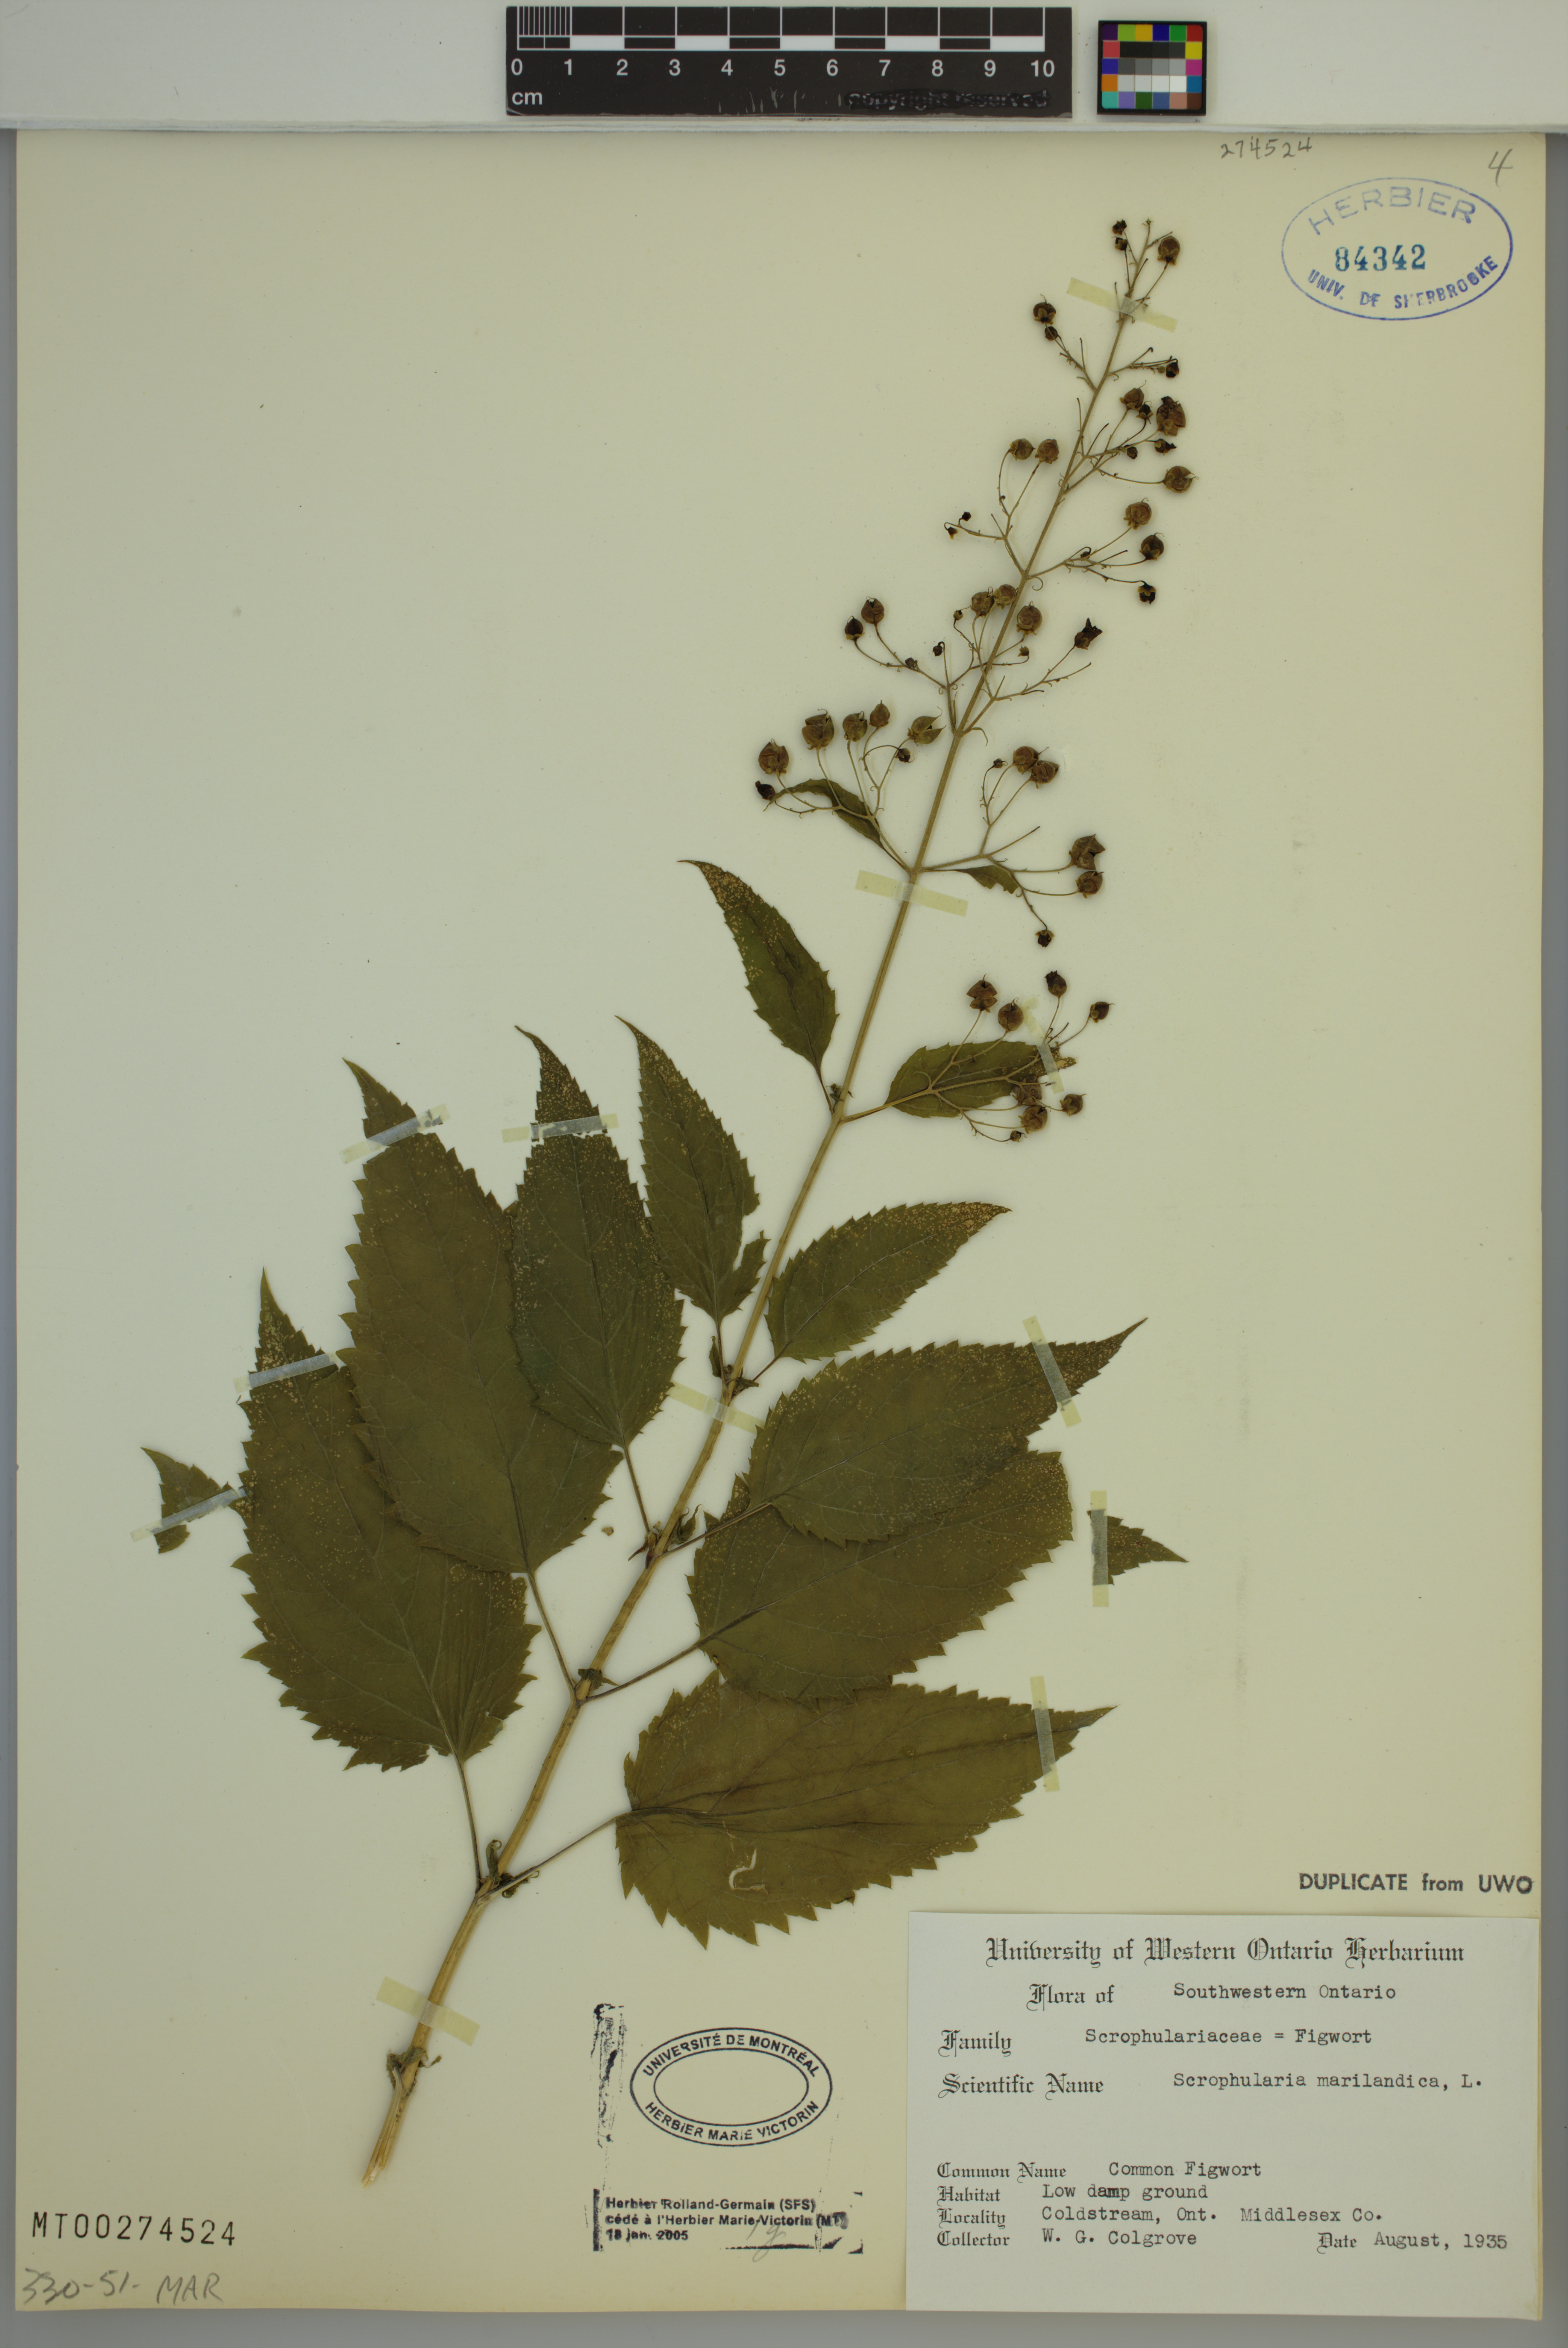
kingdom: Plantae
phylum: Tracheophyta
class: Magnoliopsida
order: Lamiales
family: Scrophulariaceae
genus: Scrophularia
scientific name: Scrophularia marilandica
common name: Eastern figwort
